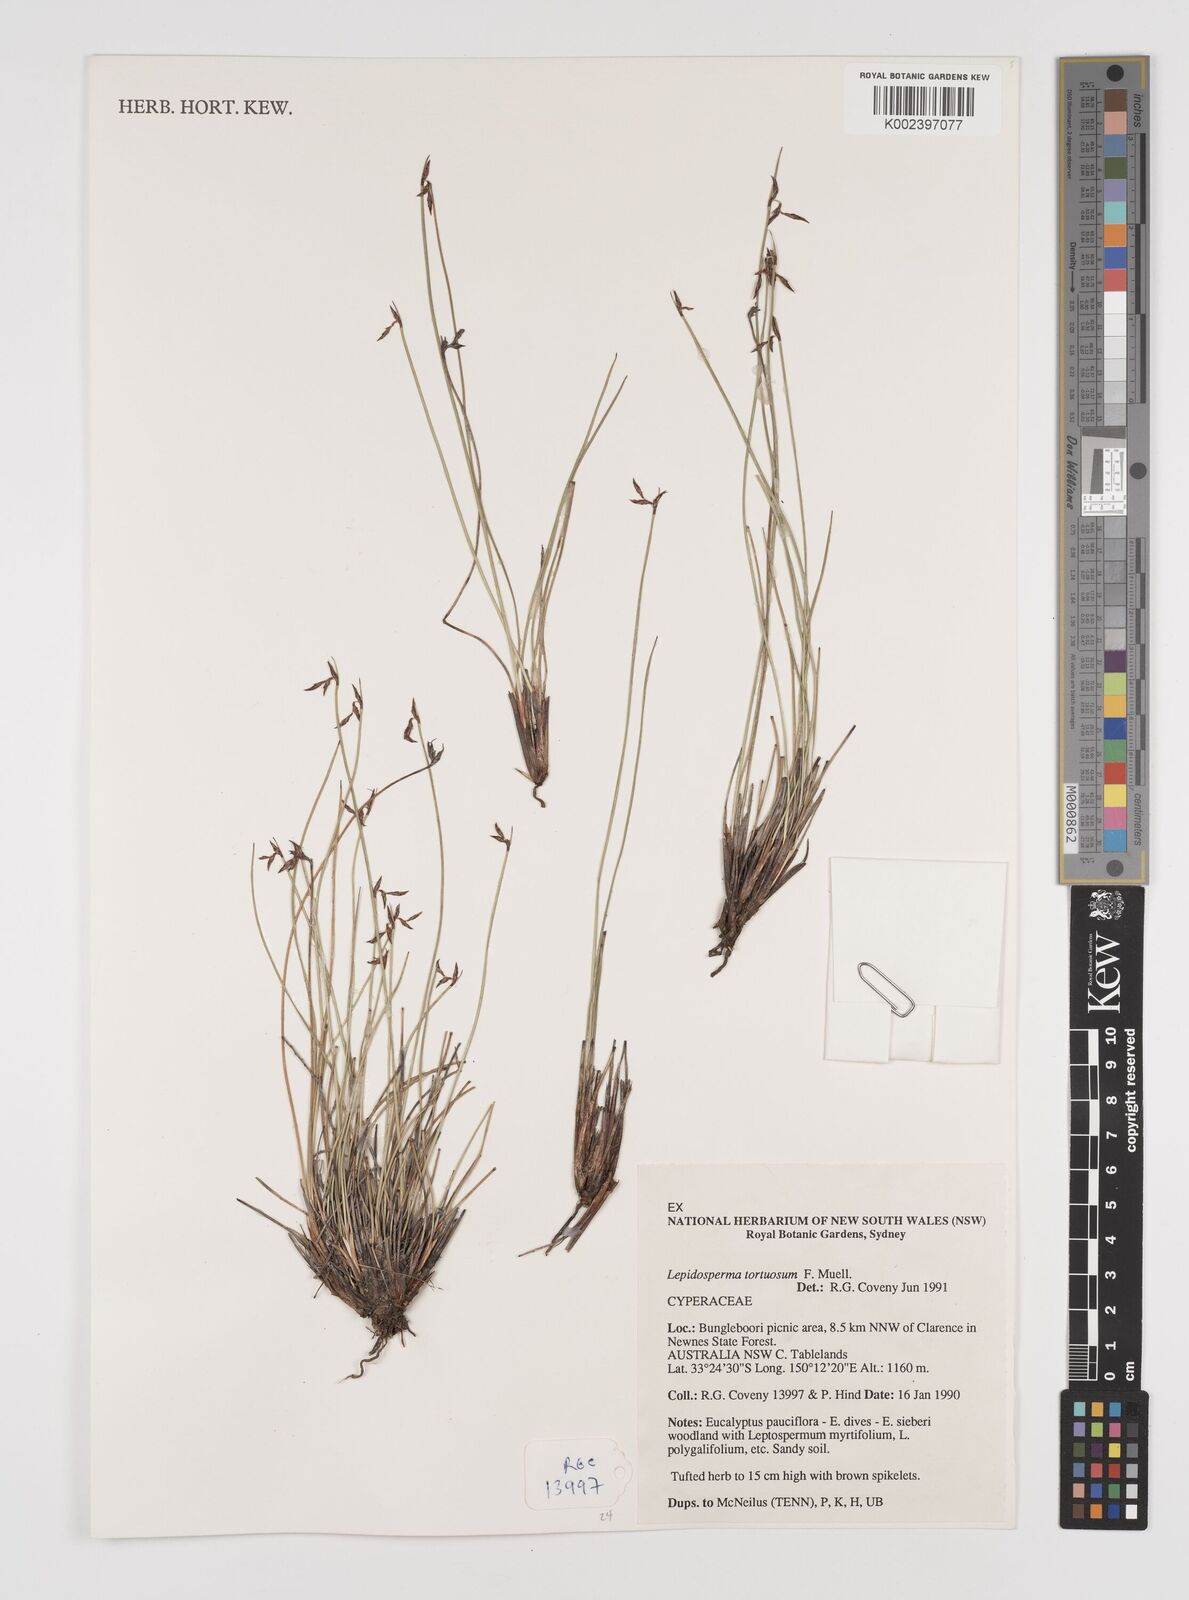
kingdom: Plantae
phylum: Tracheophyta
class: Liliopsida
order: Poales
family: Cyperaceae
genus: Lepidosperma
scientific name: Lepidosperma tortuosum
